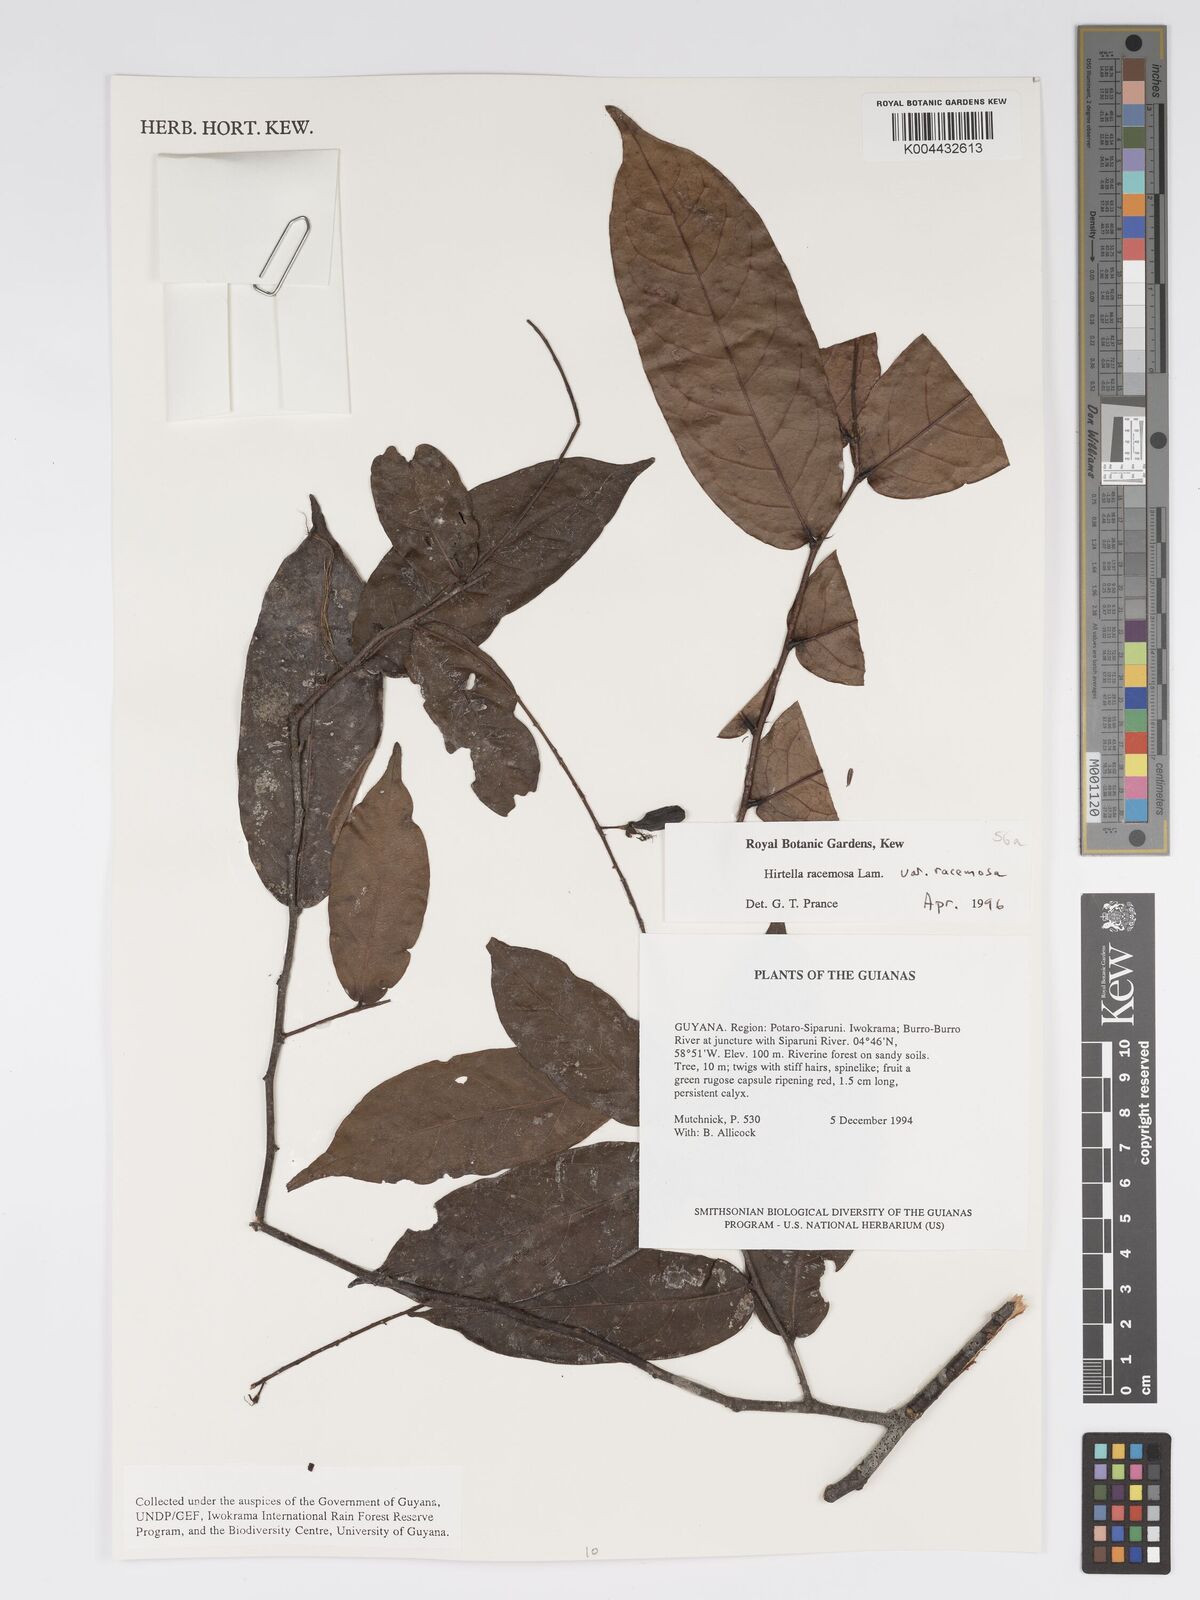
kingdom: Plantae
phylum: Tracheophyta
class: Magnoliopsida
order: Malpighiales
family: Chrysobalanaceae
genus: Hirtella
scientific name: Hirtella racemosa
